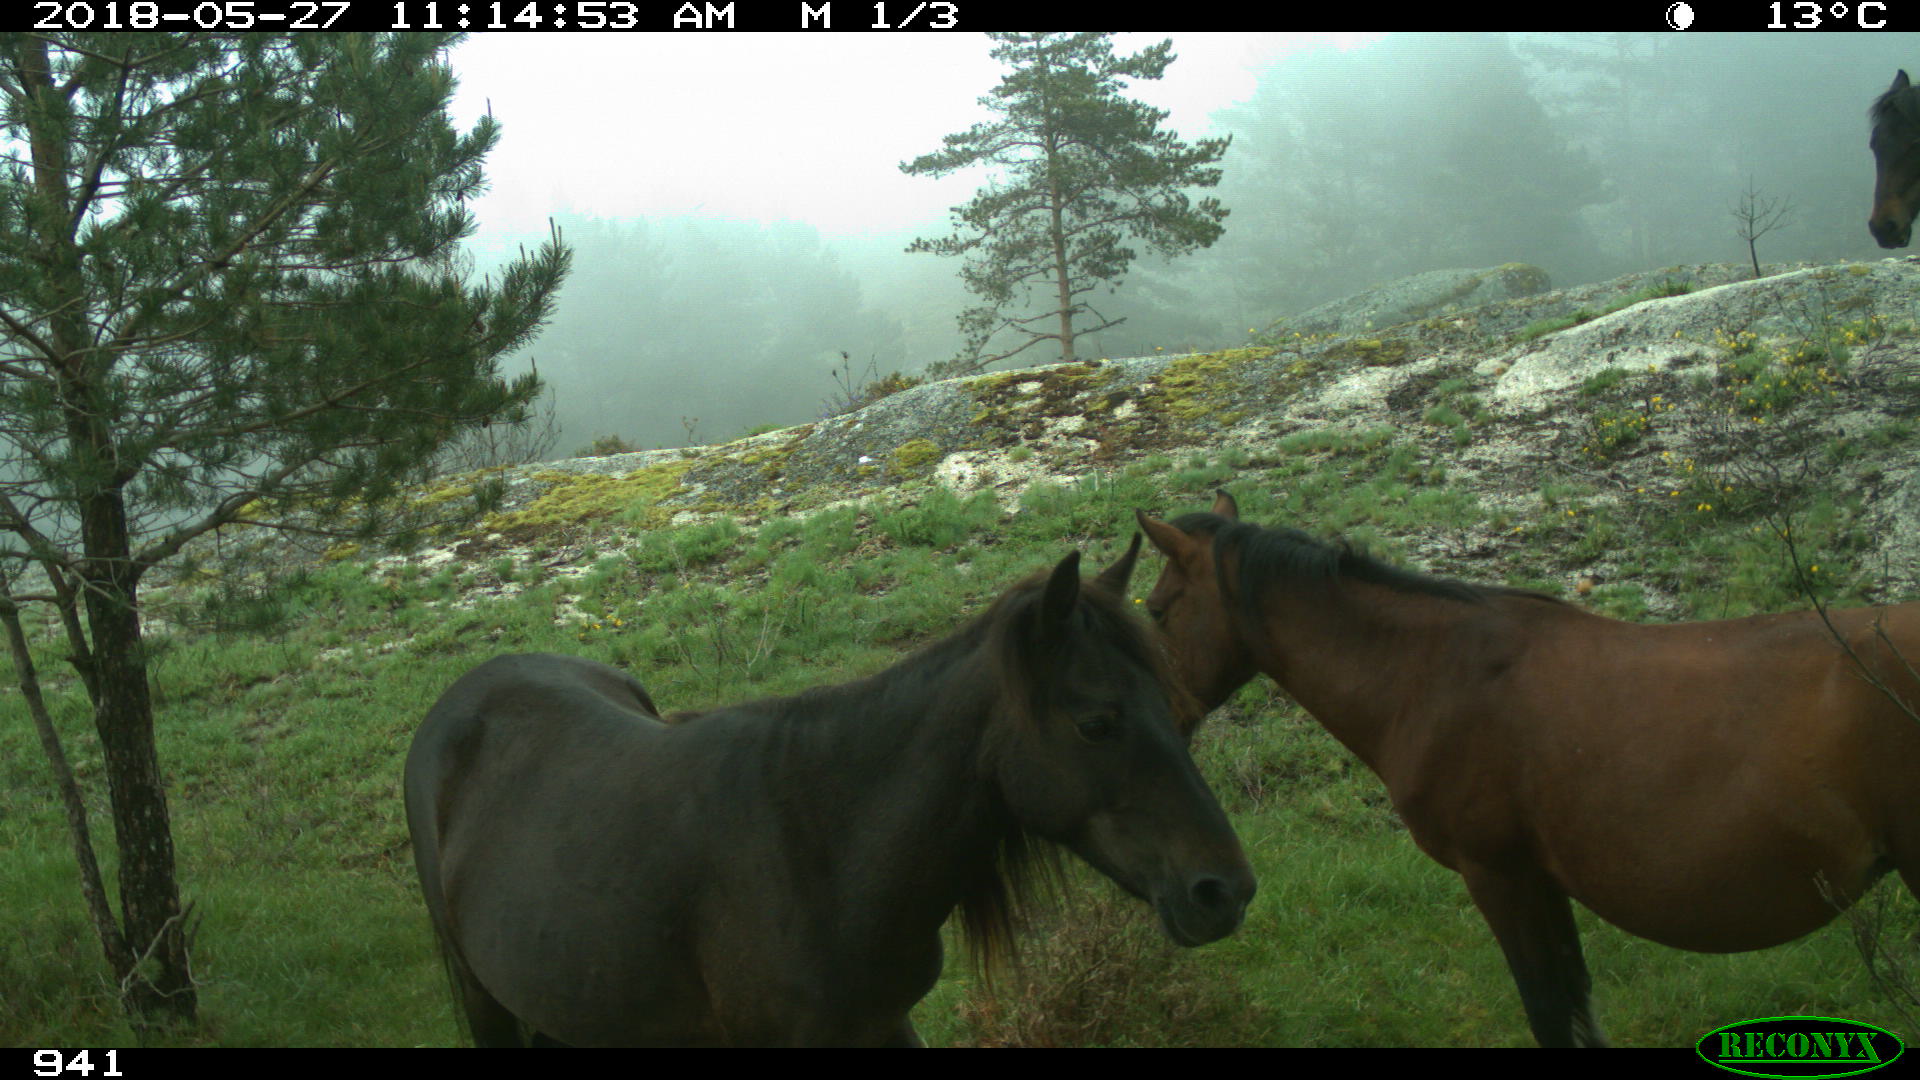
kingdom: Animalia
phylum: Chordata
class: Mammalia
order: Perissodactyla
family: Equidae
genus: Equus
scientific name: Equus caballus
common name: Horse
